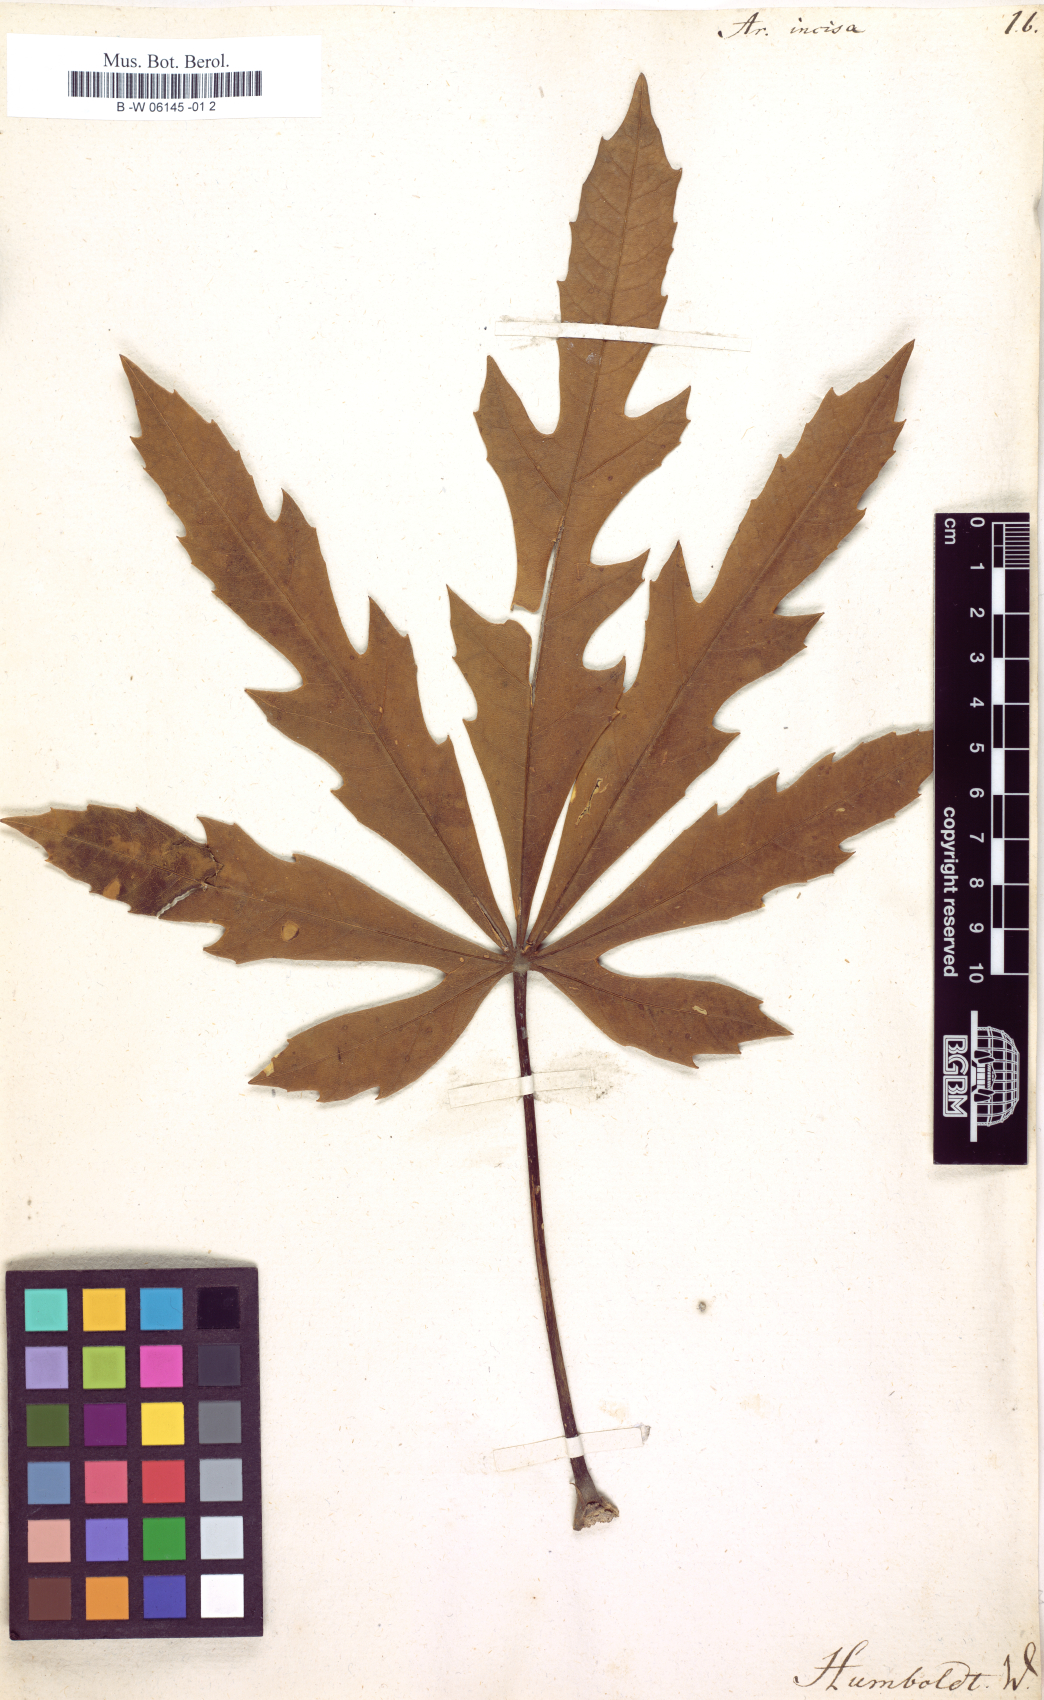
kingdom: Plantae
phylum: Tracheophyta
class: Magnoliopsida
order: Apiales
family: Araliaceae
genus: Oreopanax
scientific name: Oreopanax
